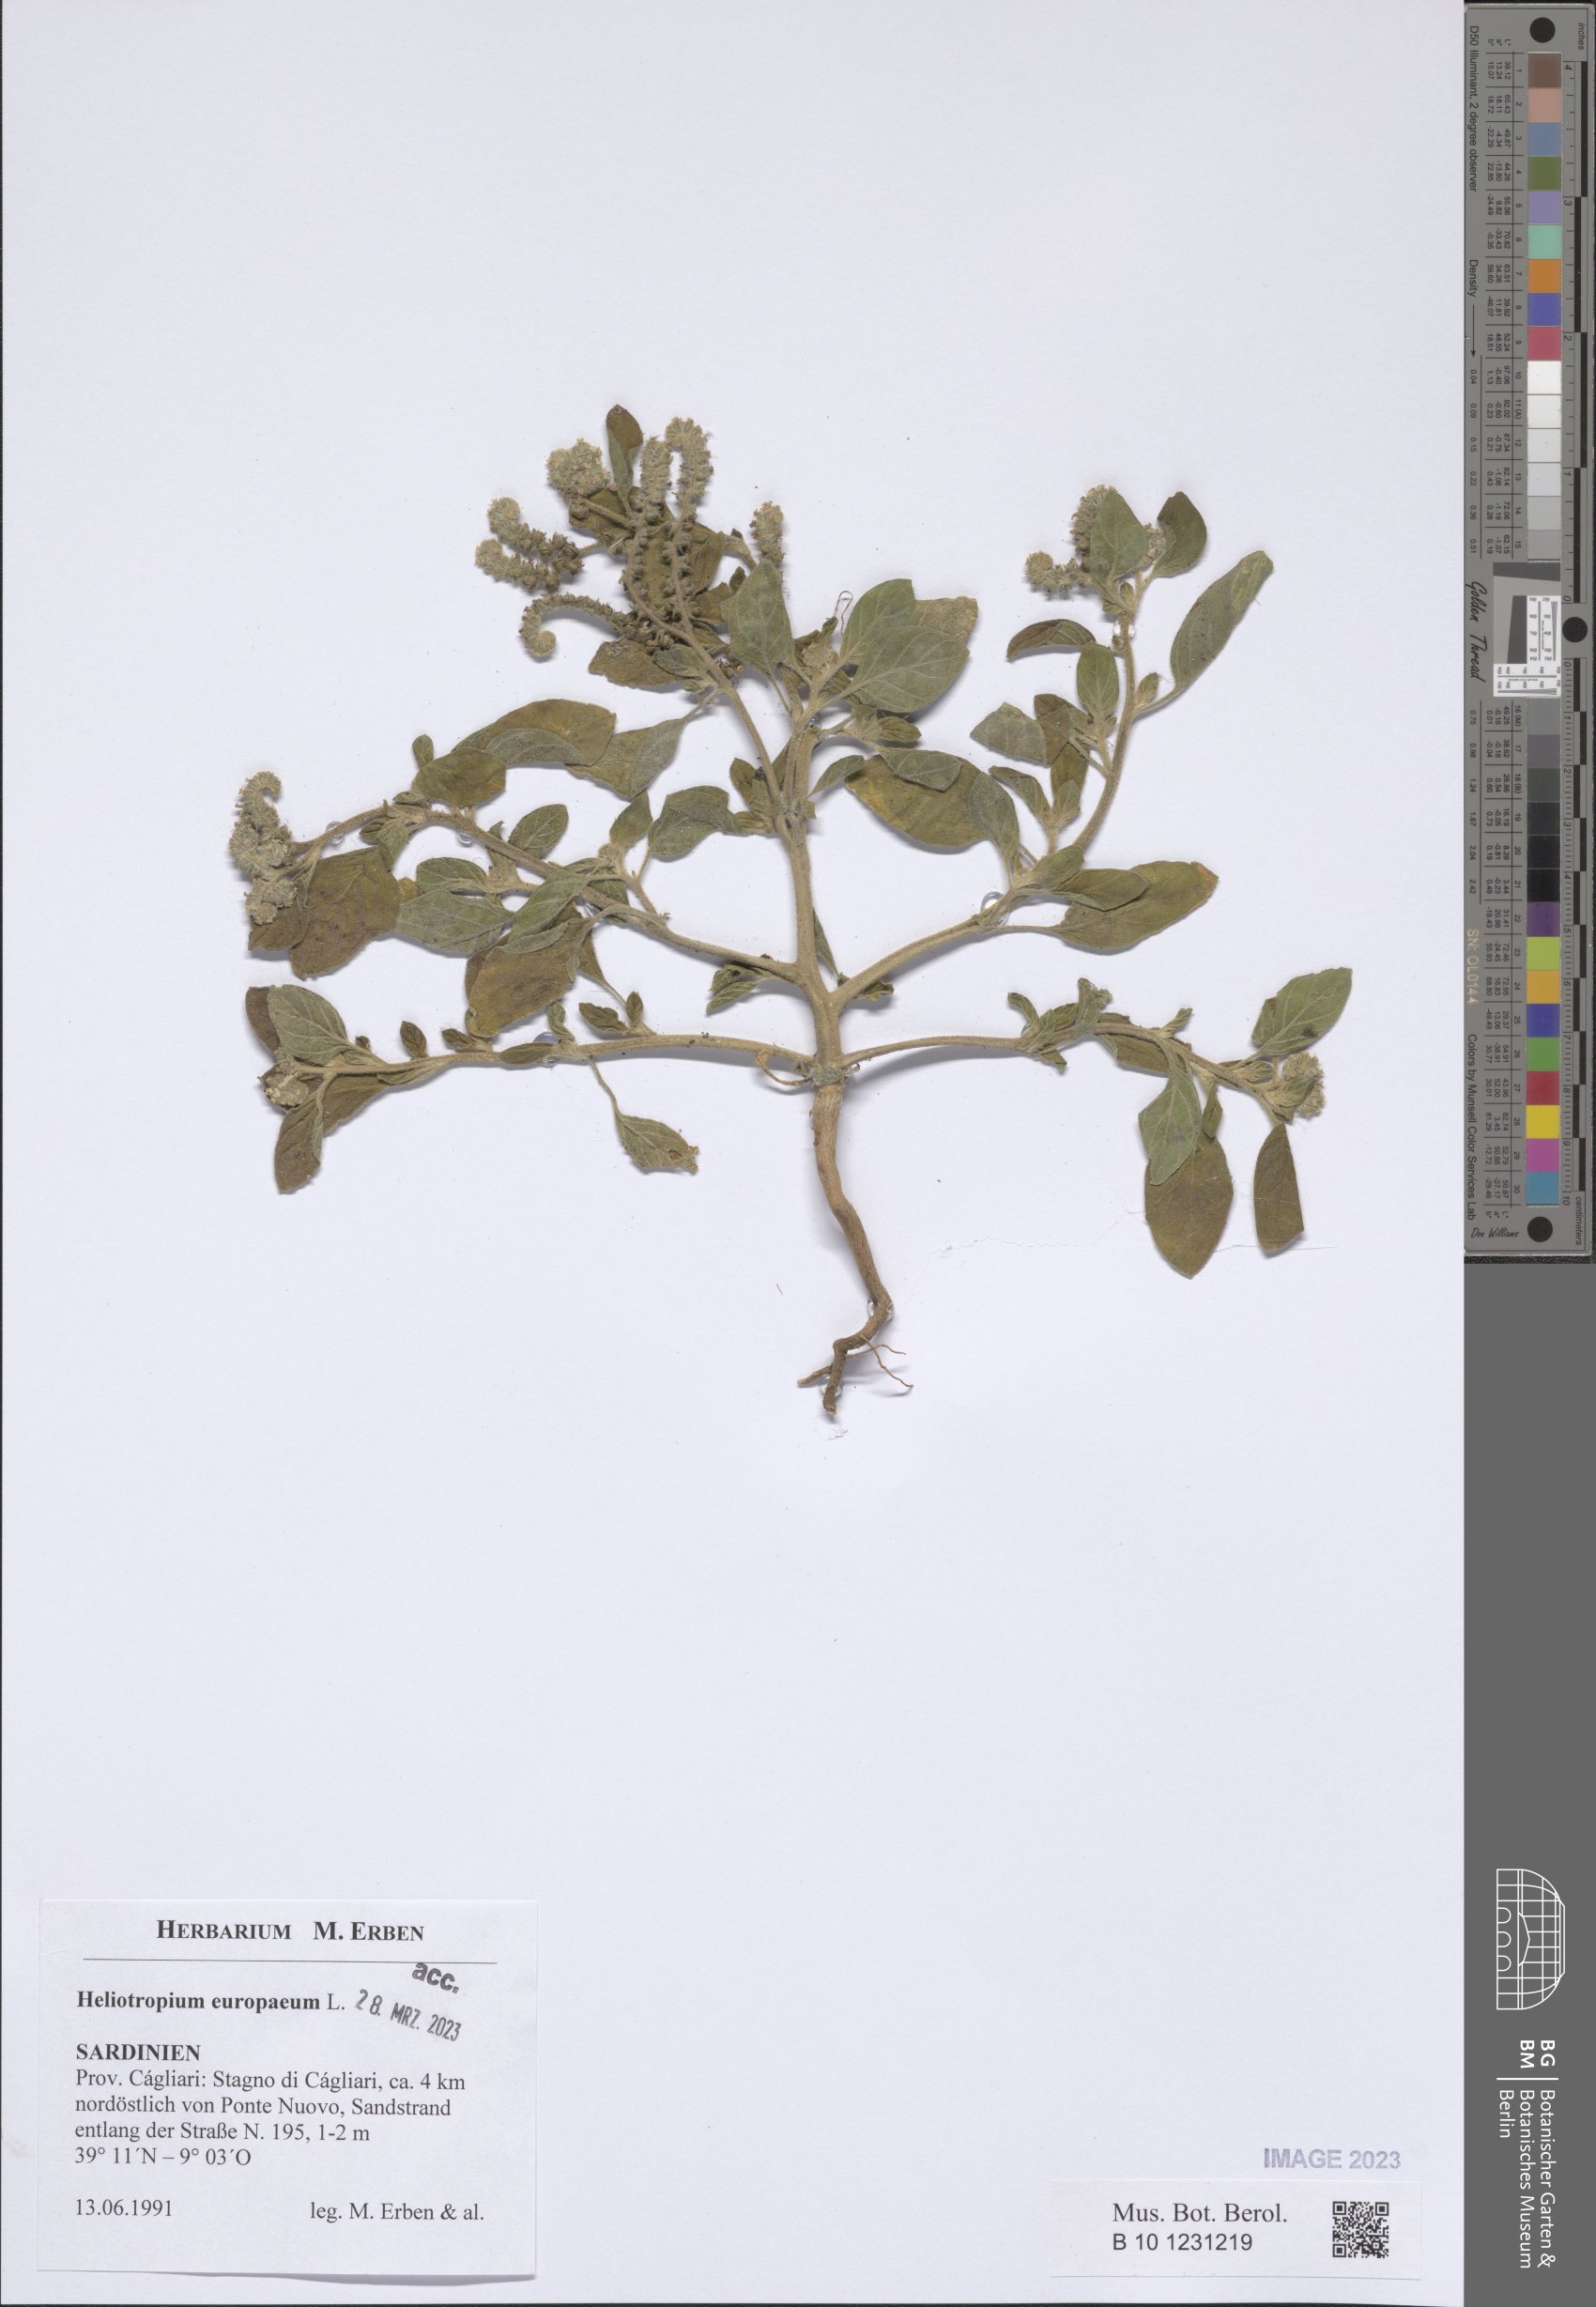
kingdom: Plantae
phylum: Tracheophyta
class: Magnoliopsida
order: Boraginales
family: Heliotropiaceae
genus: Heliotropium
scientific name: Heliotropium europaeum
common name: European heliotrope
